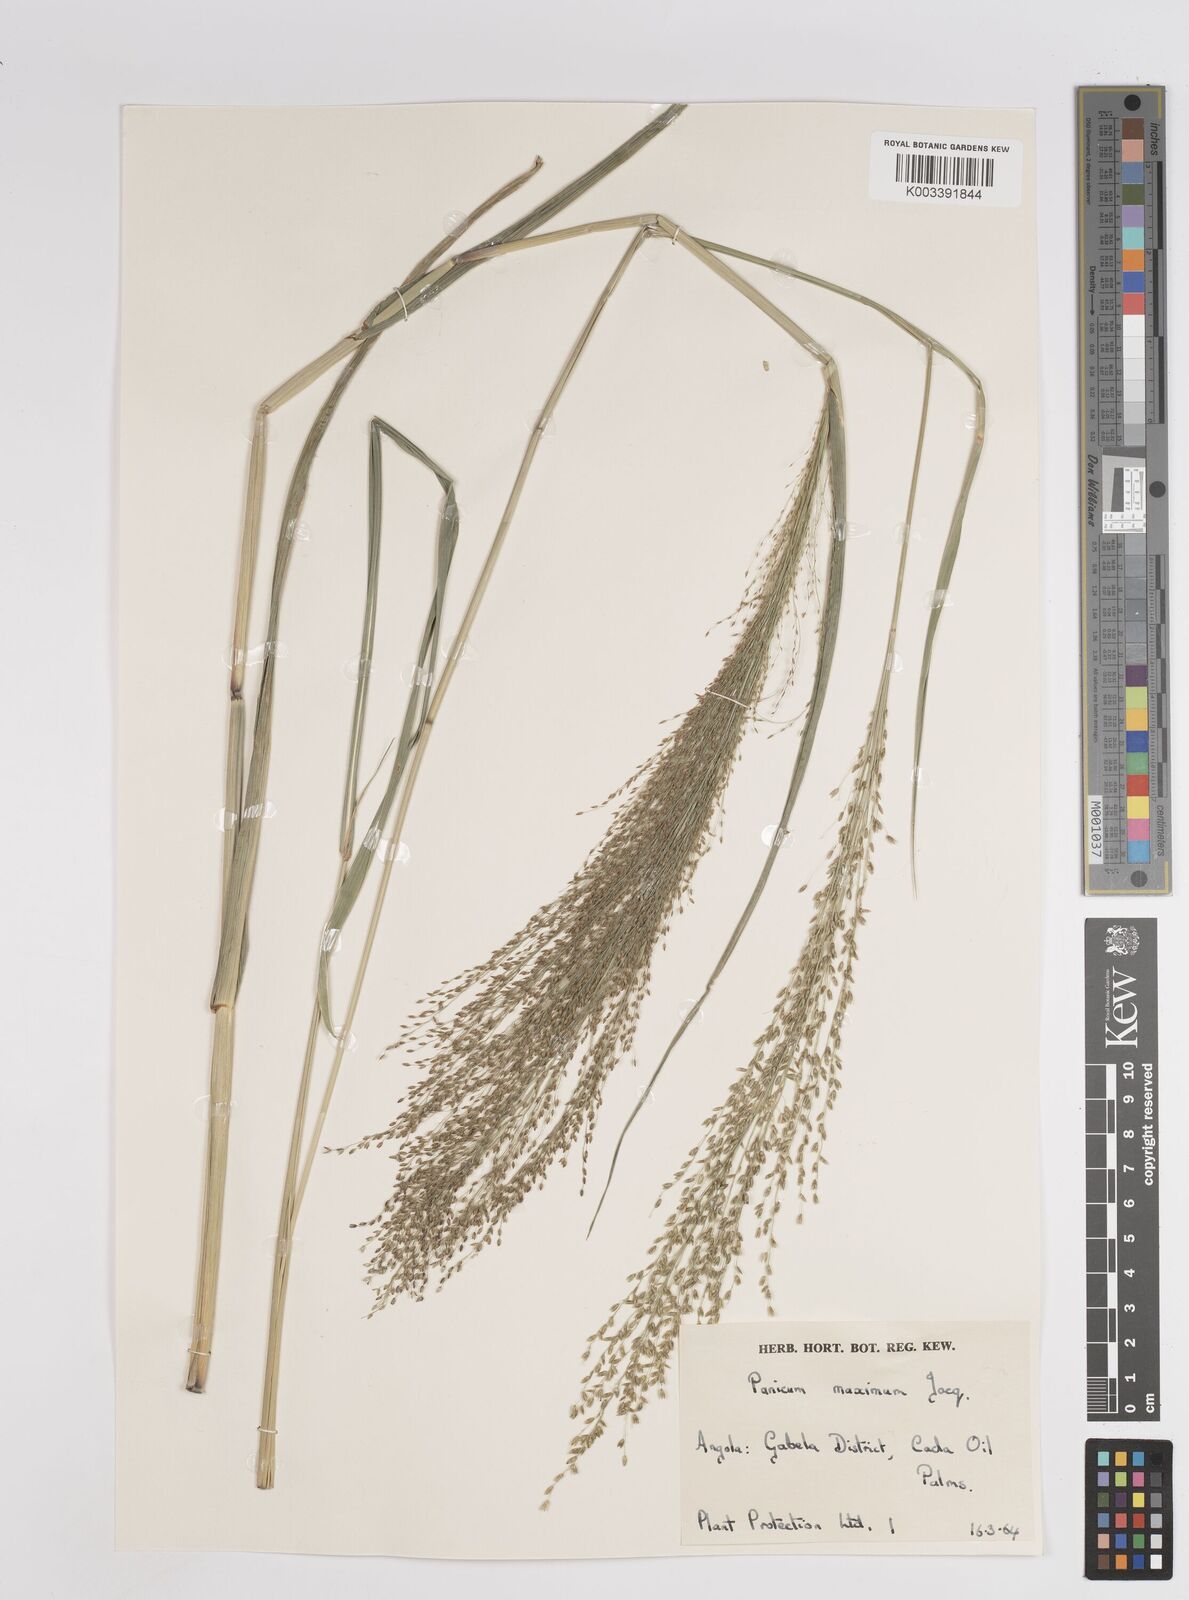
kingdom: Plantae
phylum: Tracheophyta
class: Liliopsida
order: Poales
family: Poaceae
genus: Megathyrsus
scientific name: Megathyrsus maximus
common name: Guineagrass
